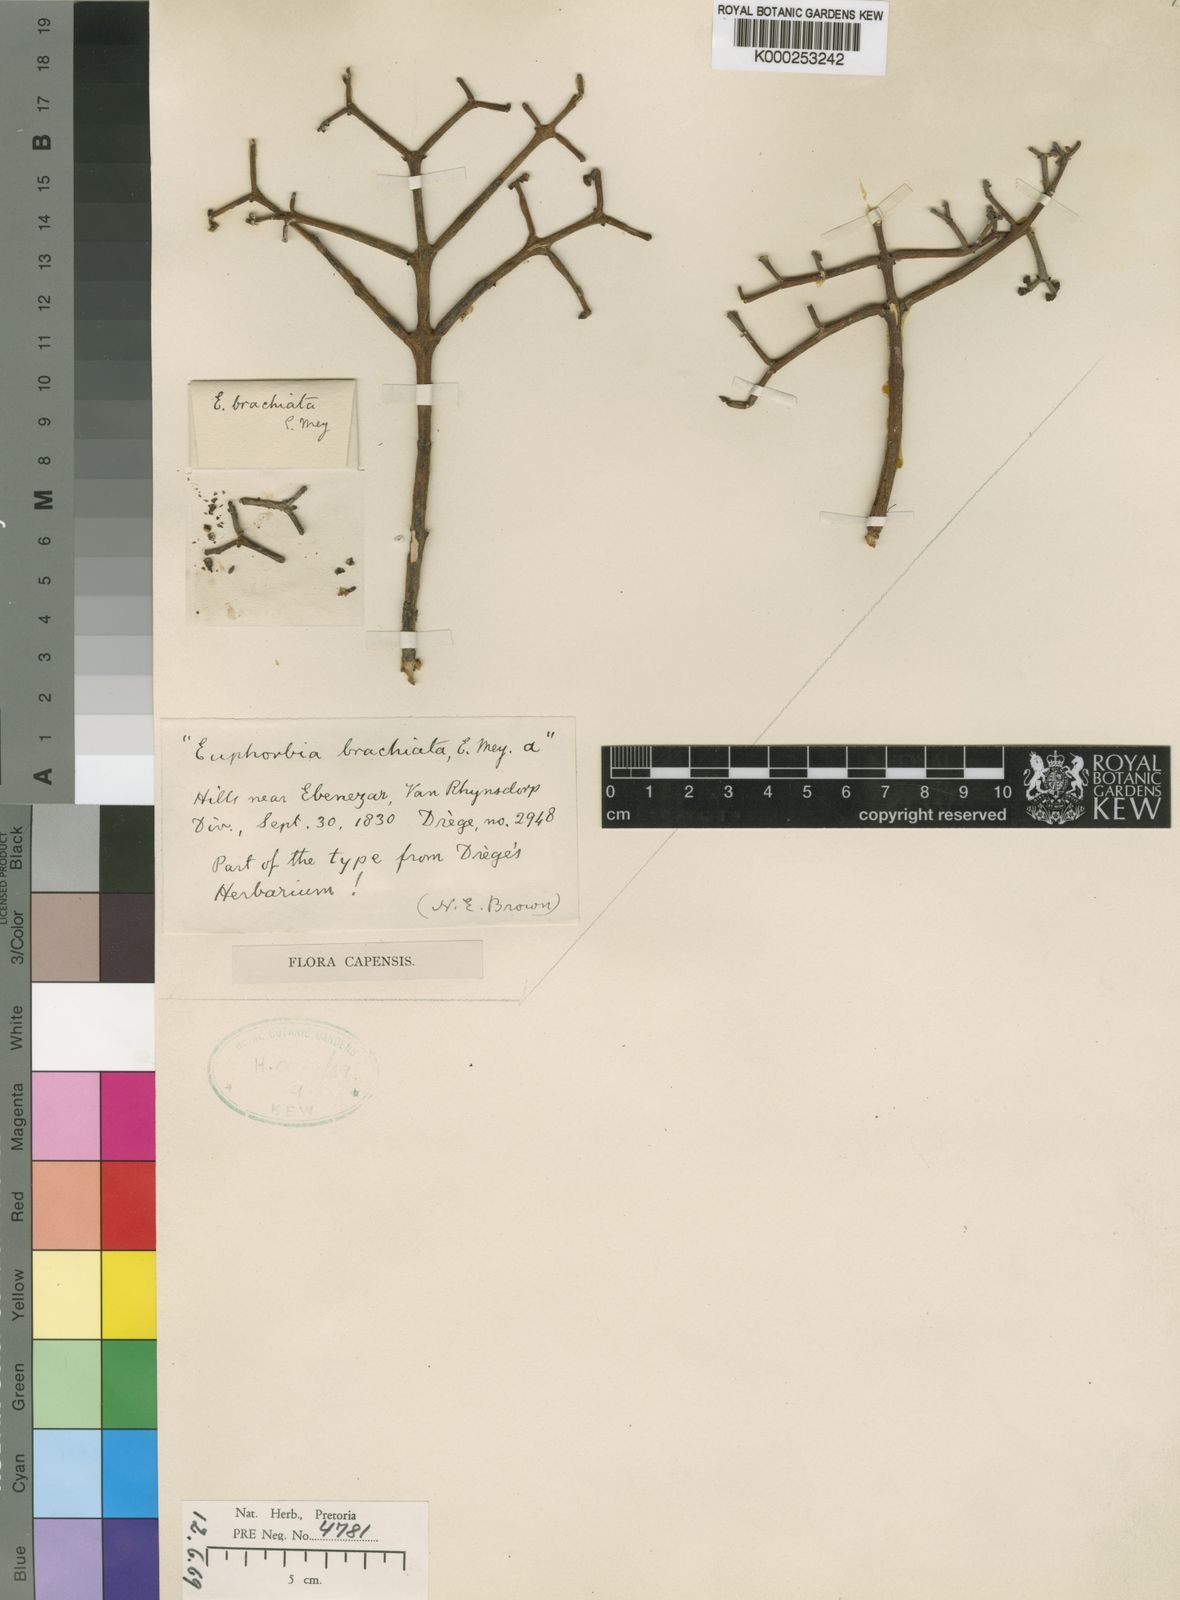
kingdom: Plantae
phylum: Tracheophyta
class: Magnoliopsida
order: Malpighiales
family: Euphorbiaceae
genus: Euphorbia
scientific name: Euphorbia rhombifolia
